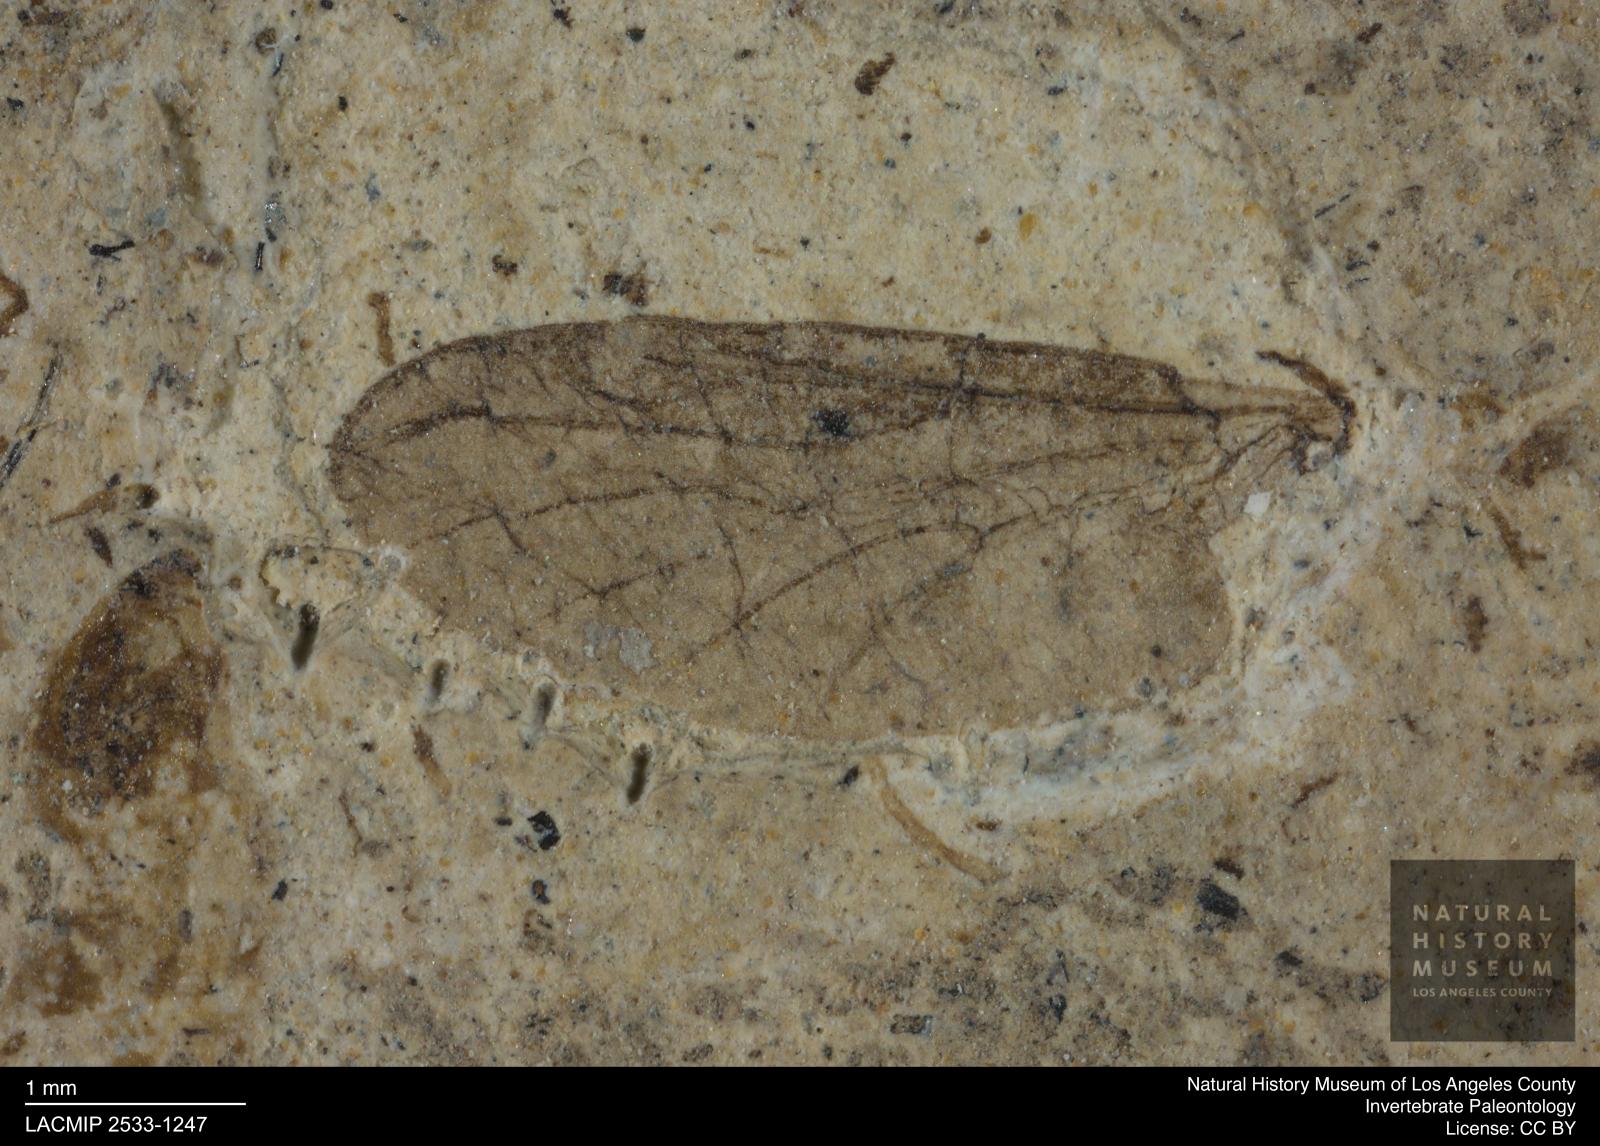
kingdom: Animalia
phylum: Arthropoda
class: Insecta
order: Diptera
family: Bibionidae
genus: Plecia
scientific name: Plecia
